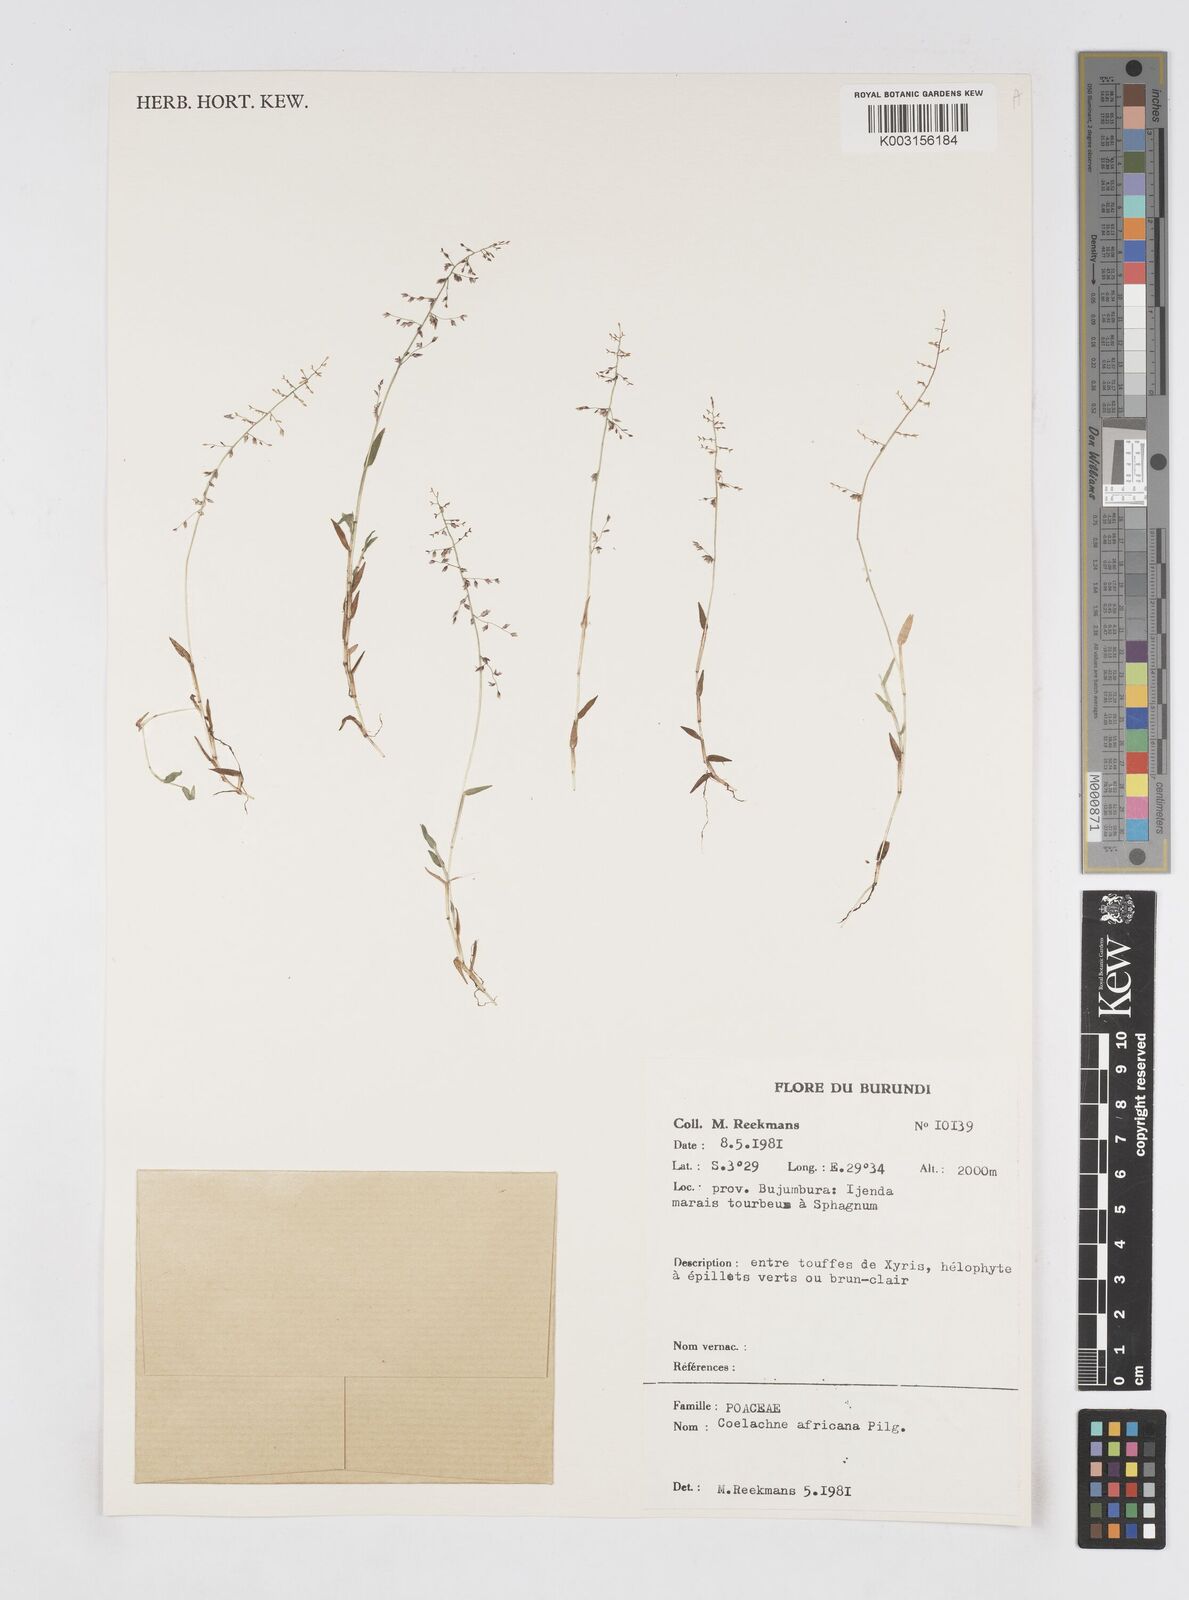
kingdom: Plantae
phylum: Tracheophyta
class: Liliopsida
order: Poales
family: Poaceae
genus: Coelachne
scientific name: Coelachne africana
